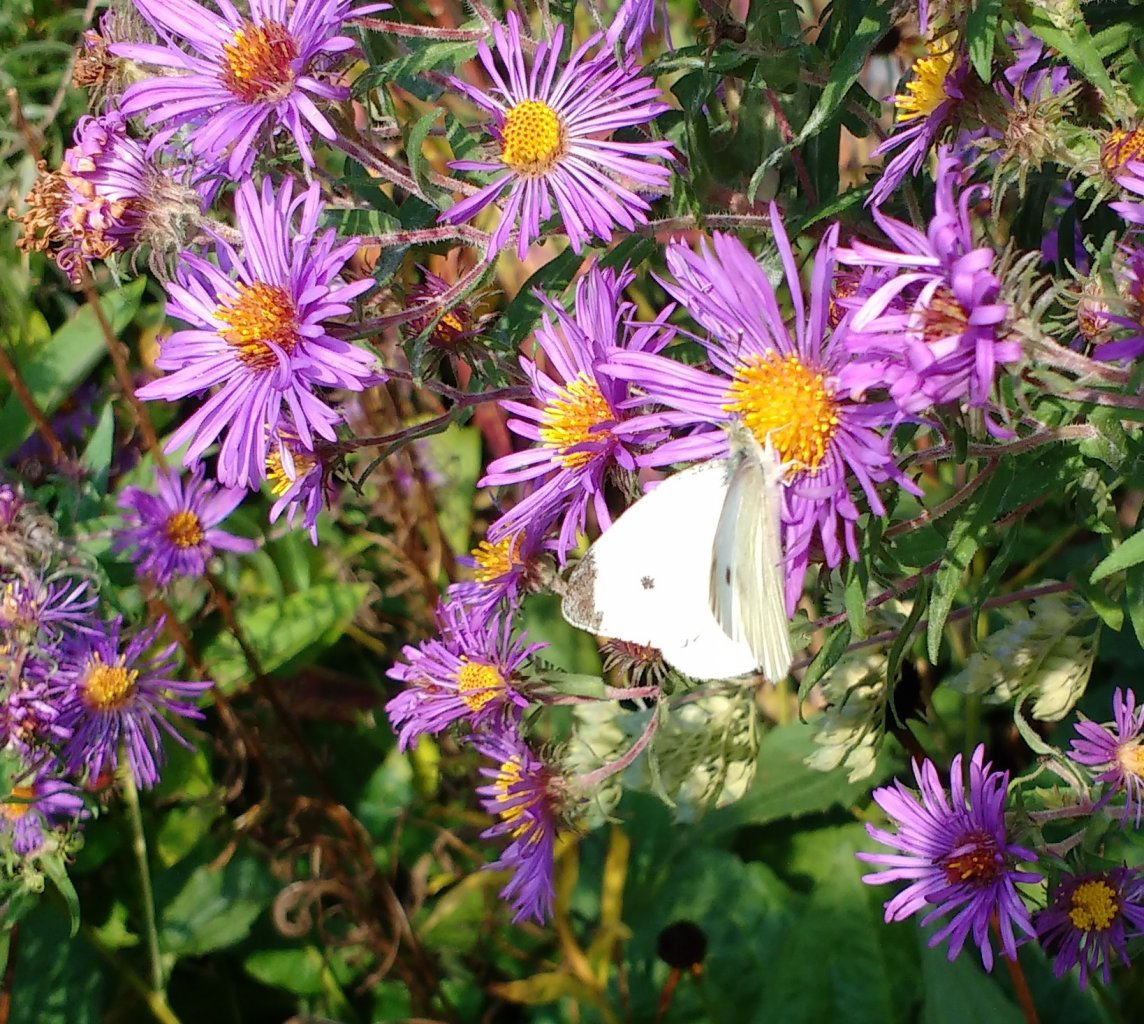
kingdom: Animalia
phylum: Arthropoda
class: Insecta
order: Lepidoptera
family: Pieridae
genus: Pieris
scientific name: Pieris rapae
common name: Cabbage White
